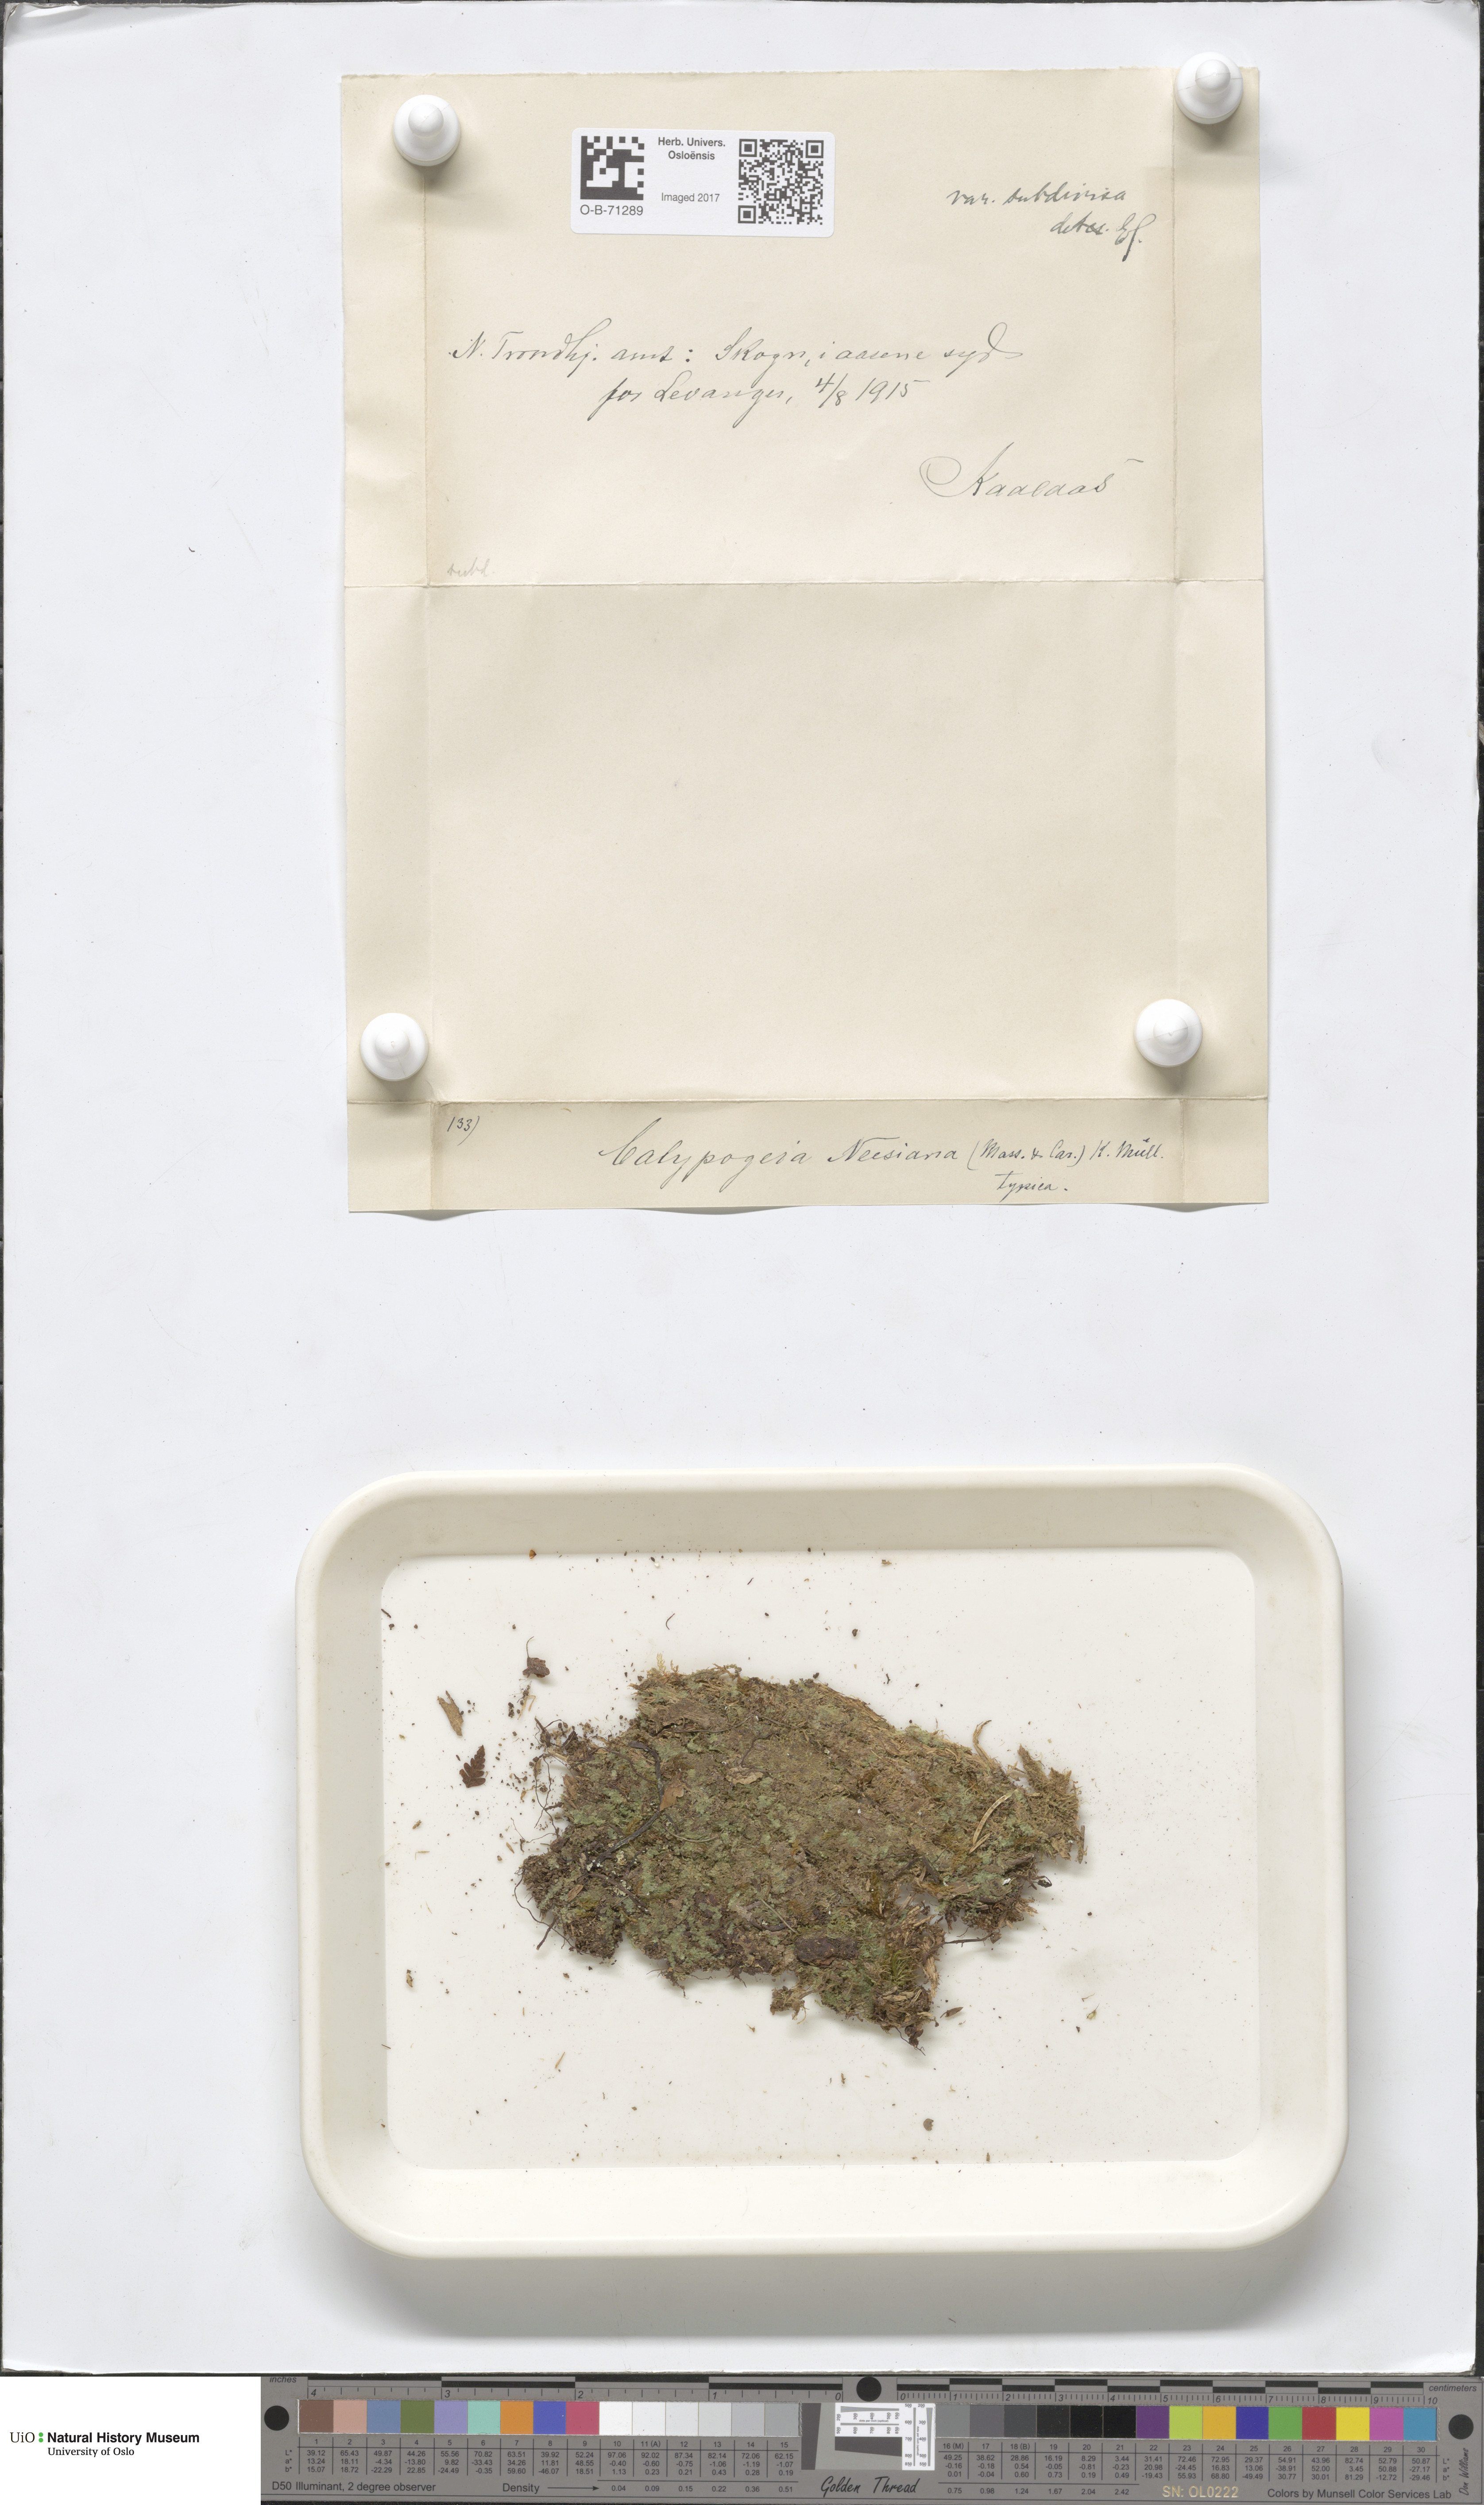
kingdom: Plantae
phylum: Marchantiophyta
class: Jungermanniopsida
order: Jungermanniales
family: Calypogeiaceae
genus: Calypogeia
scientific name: Calypogeia integristipula
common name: Meylan s pouchwort
